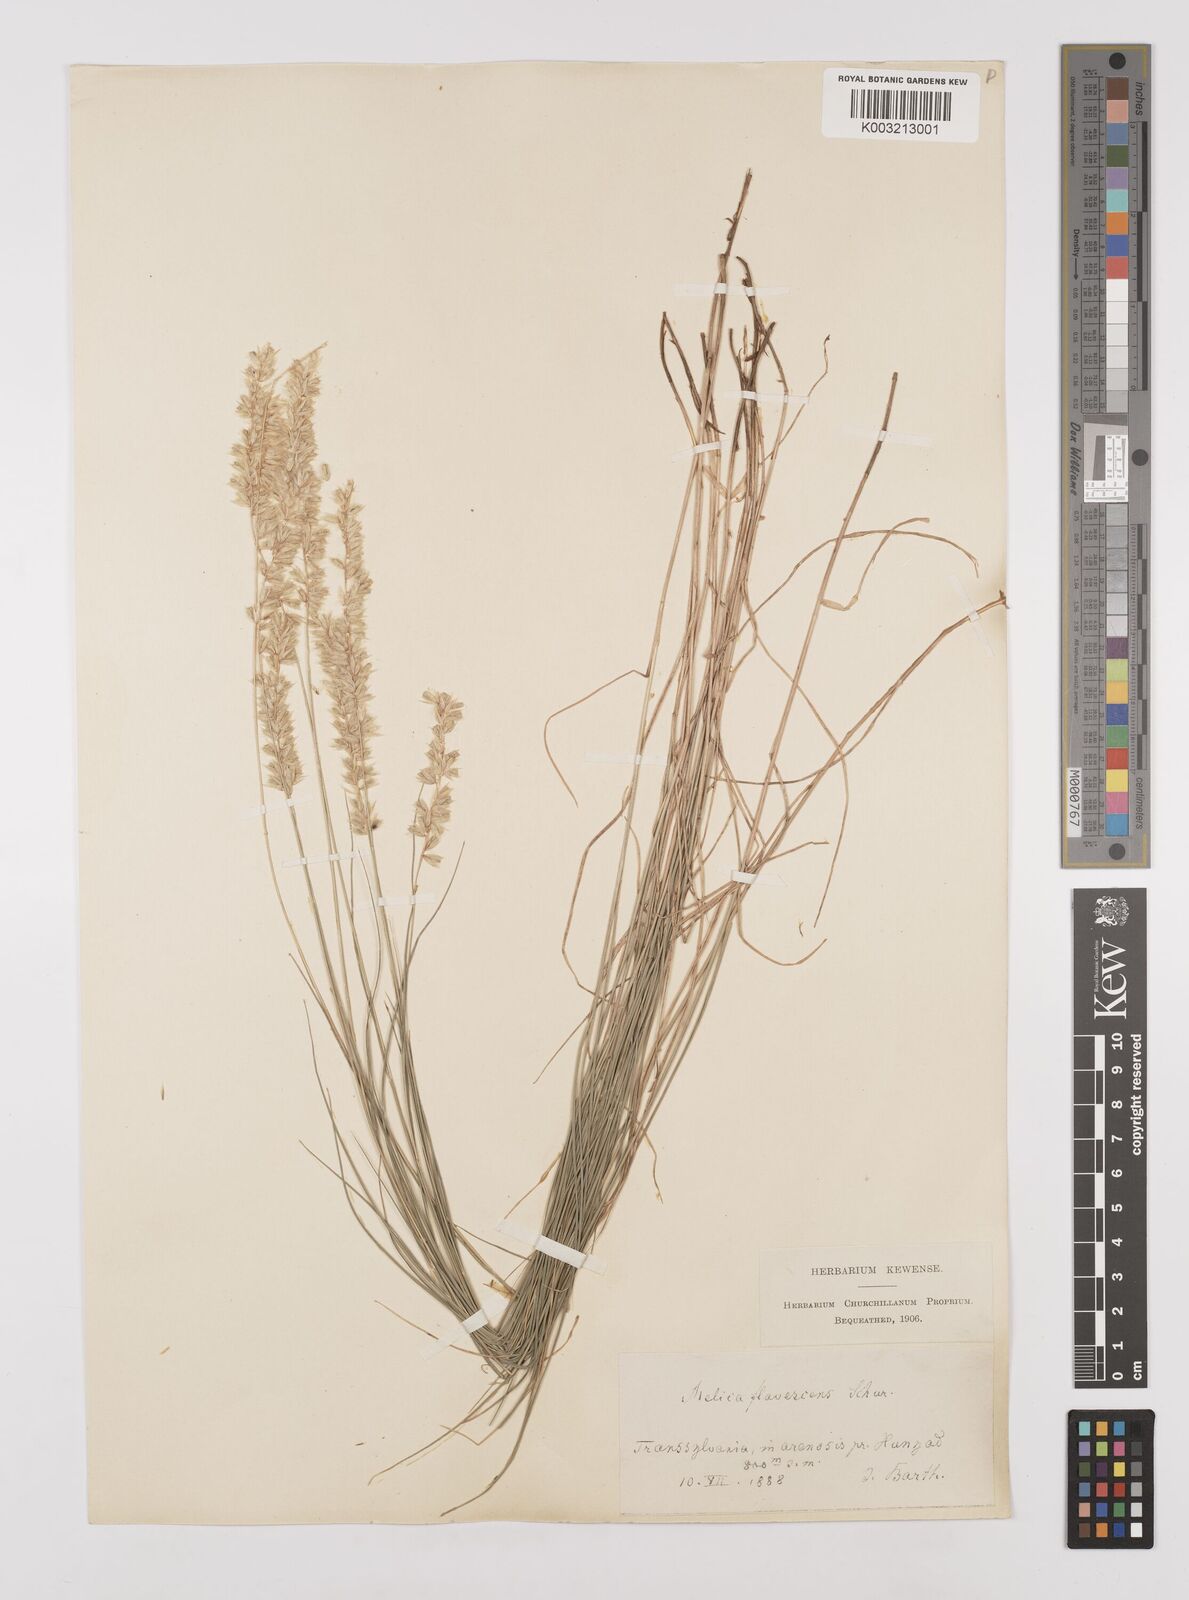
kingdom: Plantae
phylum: Tracheophyta
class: Liliopsida
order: Poales
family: Poaceae
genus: Melica
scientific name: Melica transsilvanica
